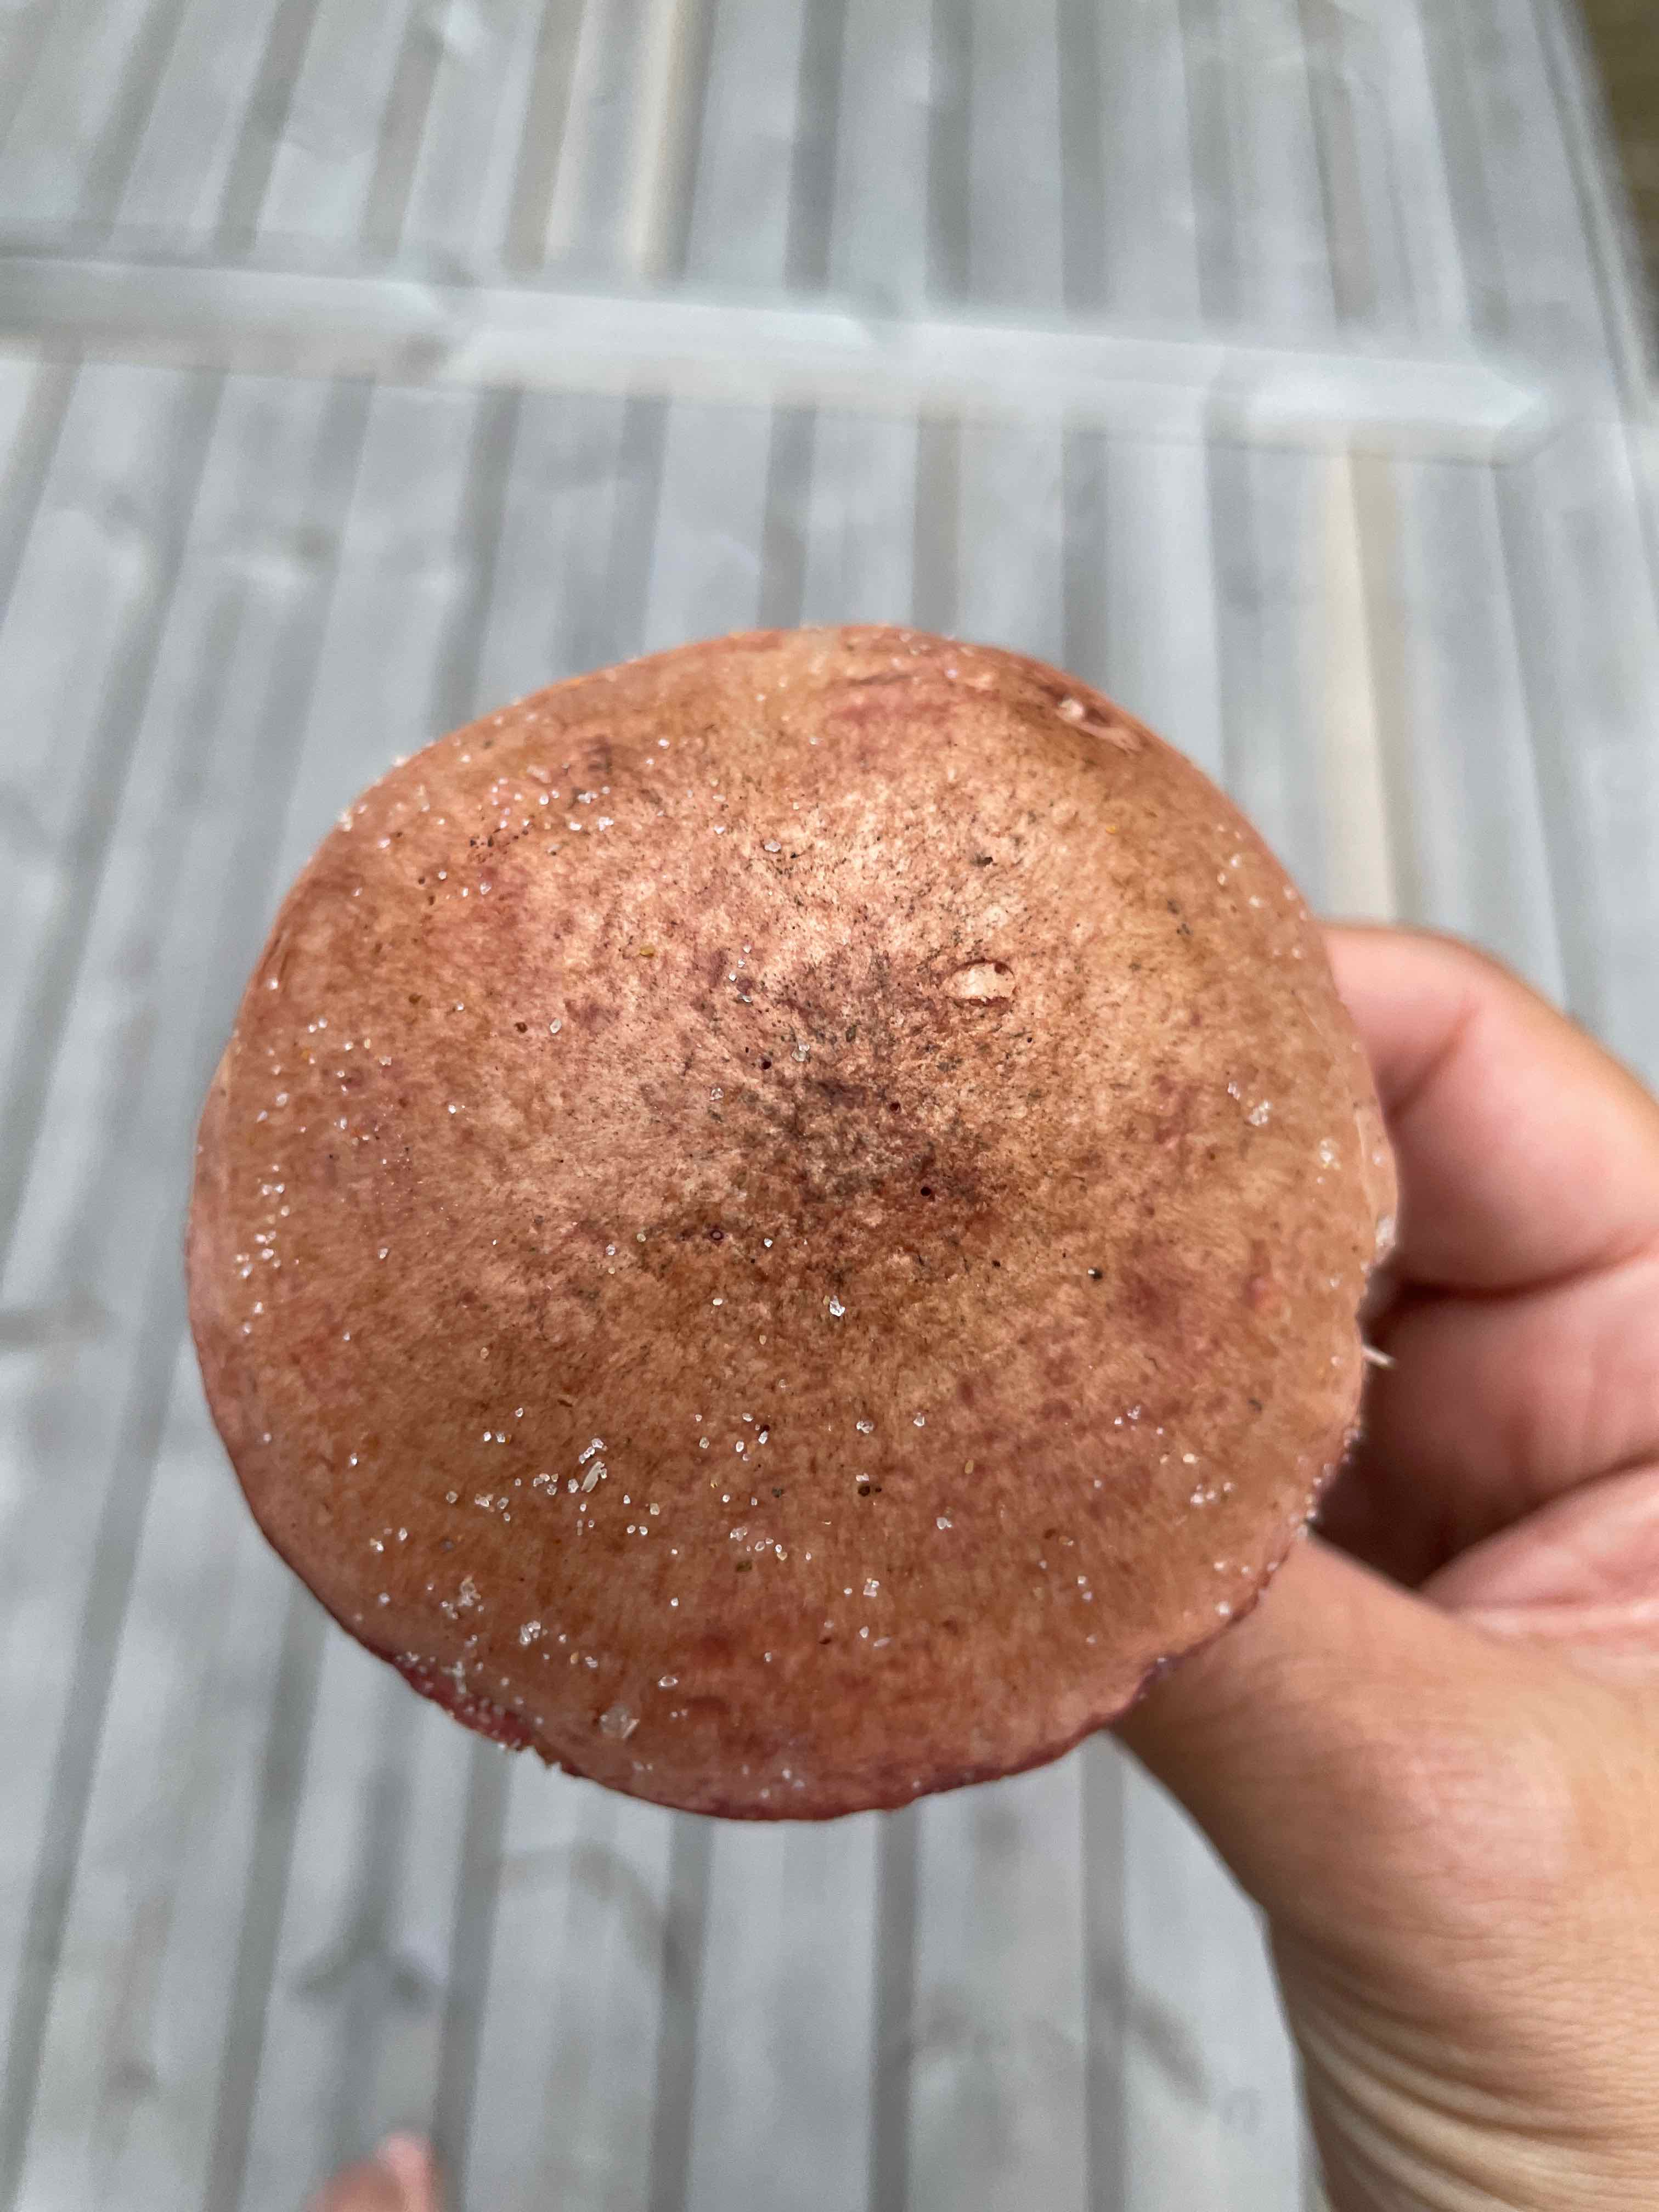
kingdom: Fungi
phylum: Basidiomycota
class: Agaricomycetes
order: Boletales
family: Gomphidiaceae
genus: Chroogomphus
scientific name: Chroogomphus rutilus
